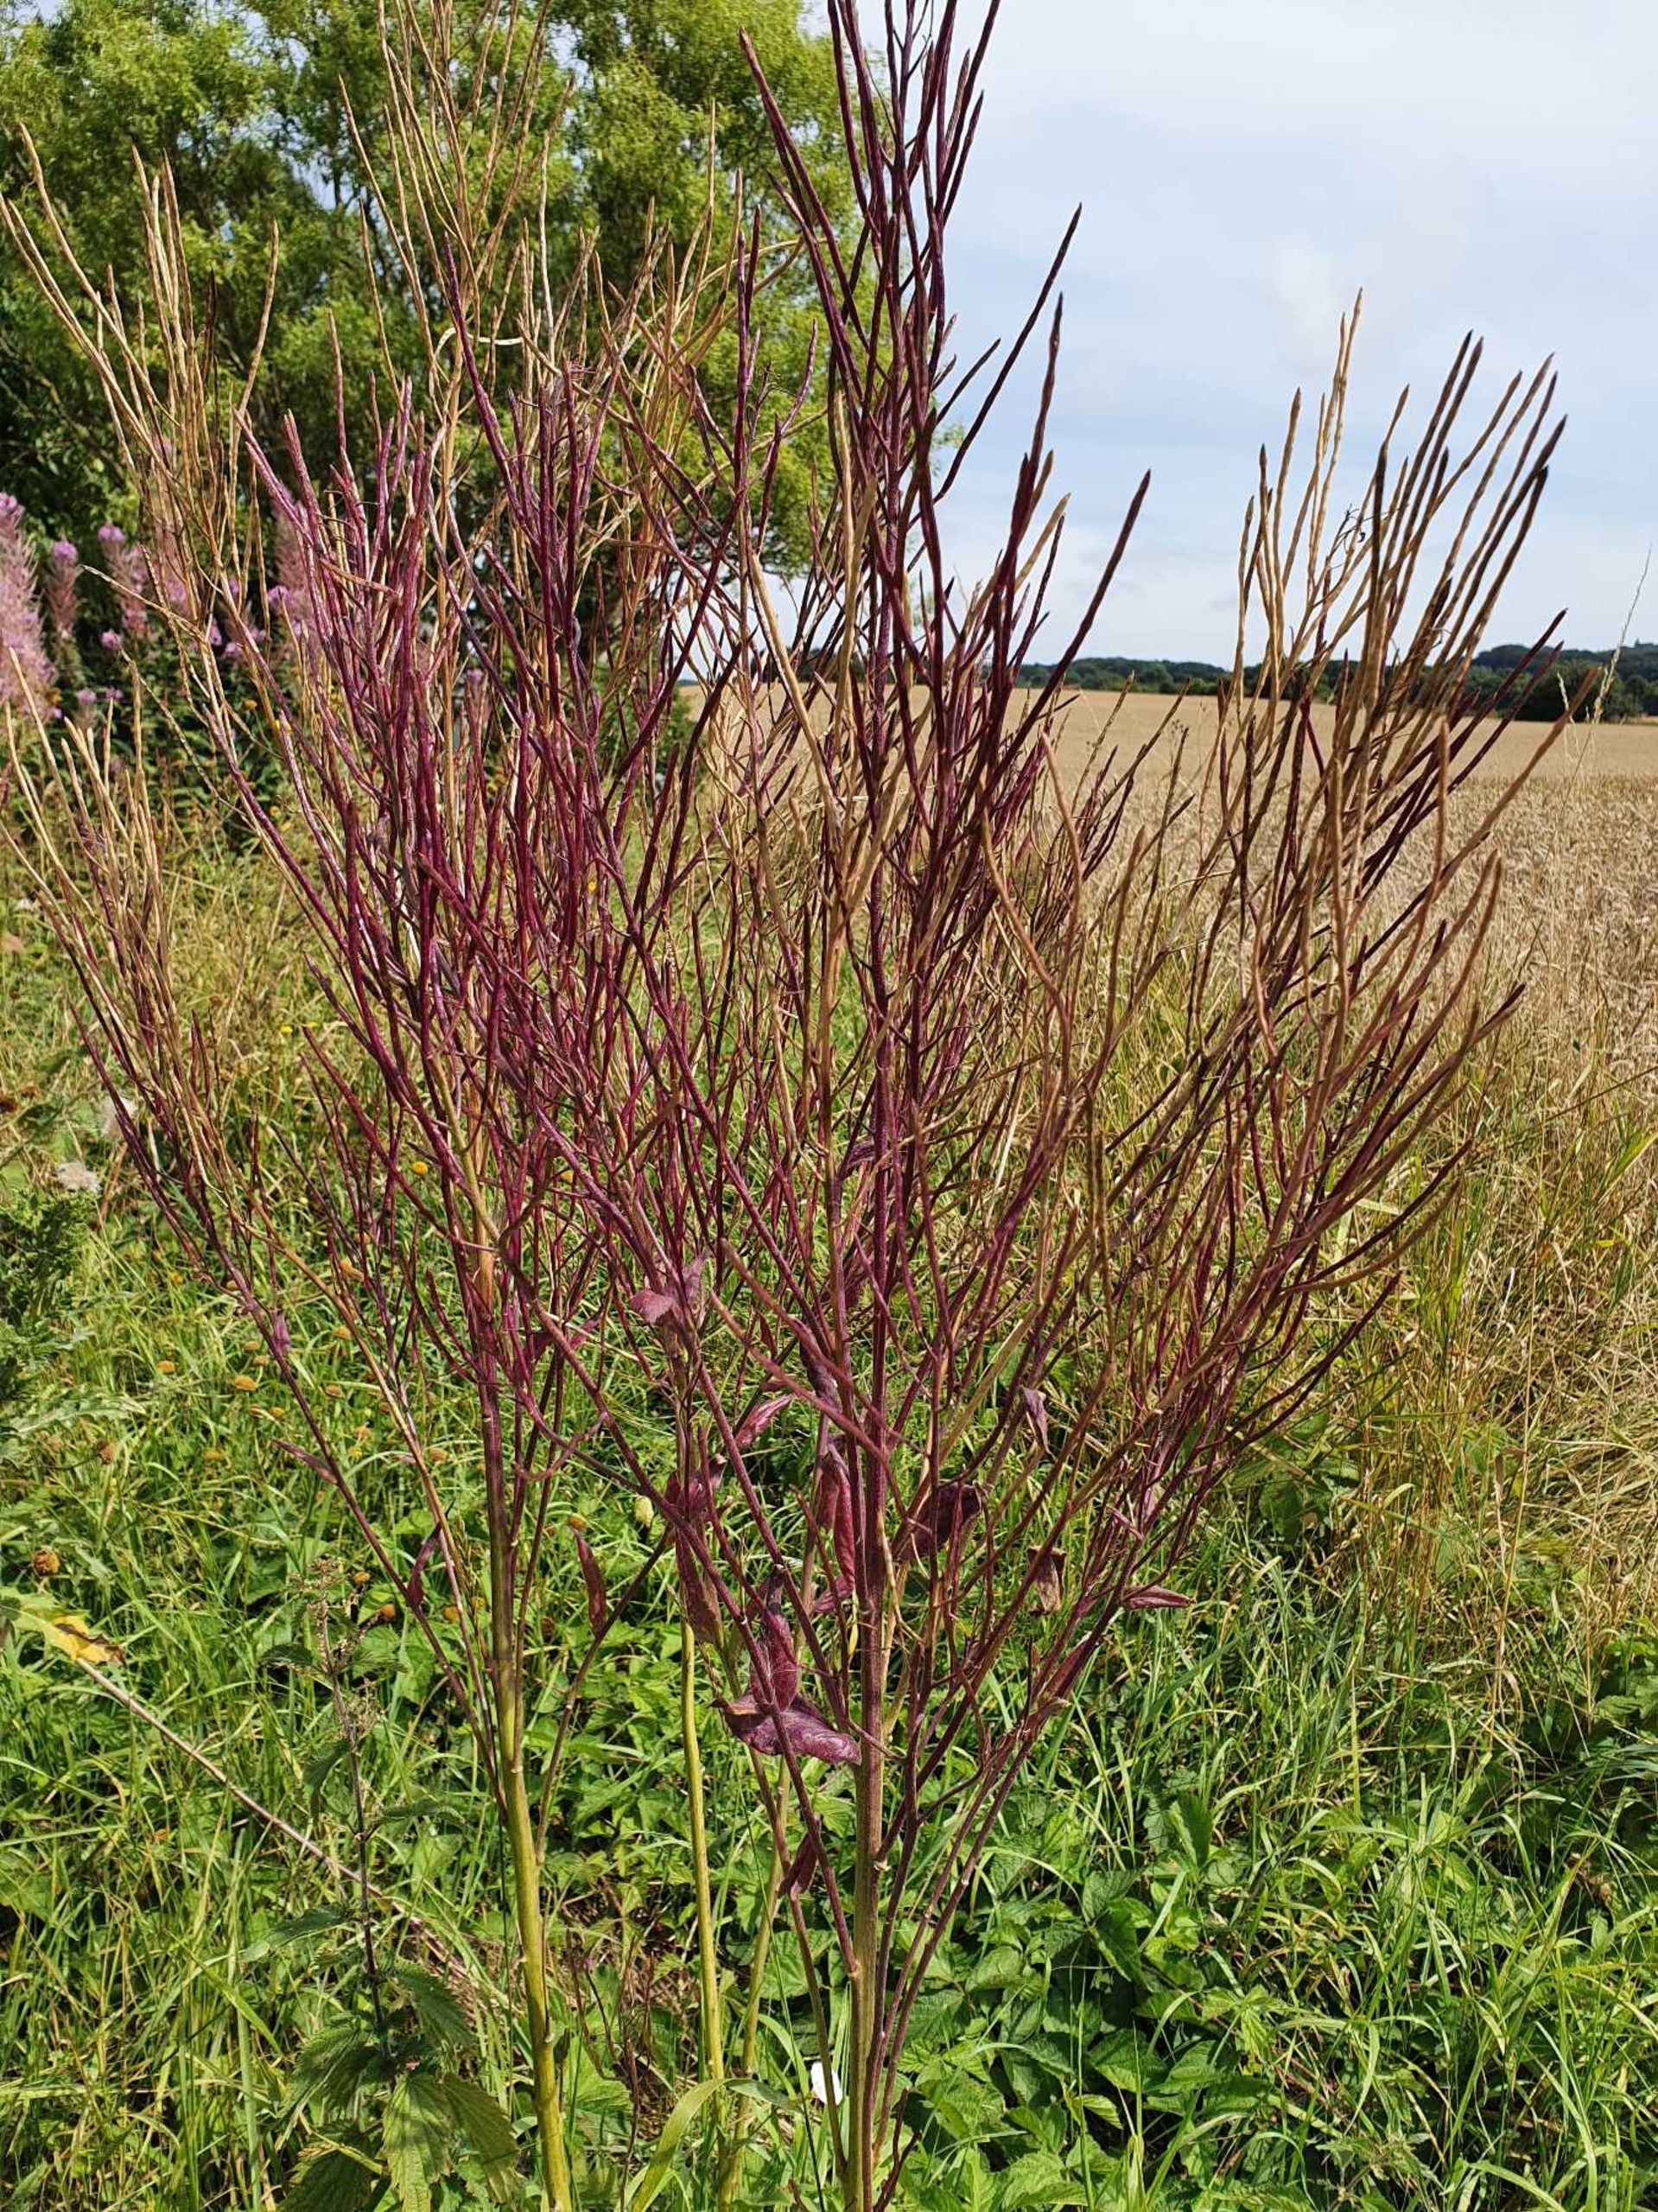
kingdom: Plantae
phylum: Tracheophyta
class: Magnoliopsida
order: Brassicales
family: Brassicaceae
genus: Hesperis
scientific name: Hesperis matronalis
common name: Aftenstjerne
